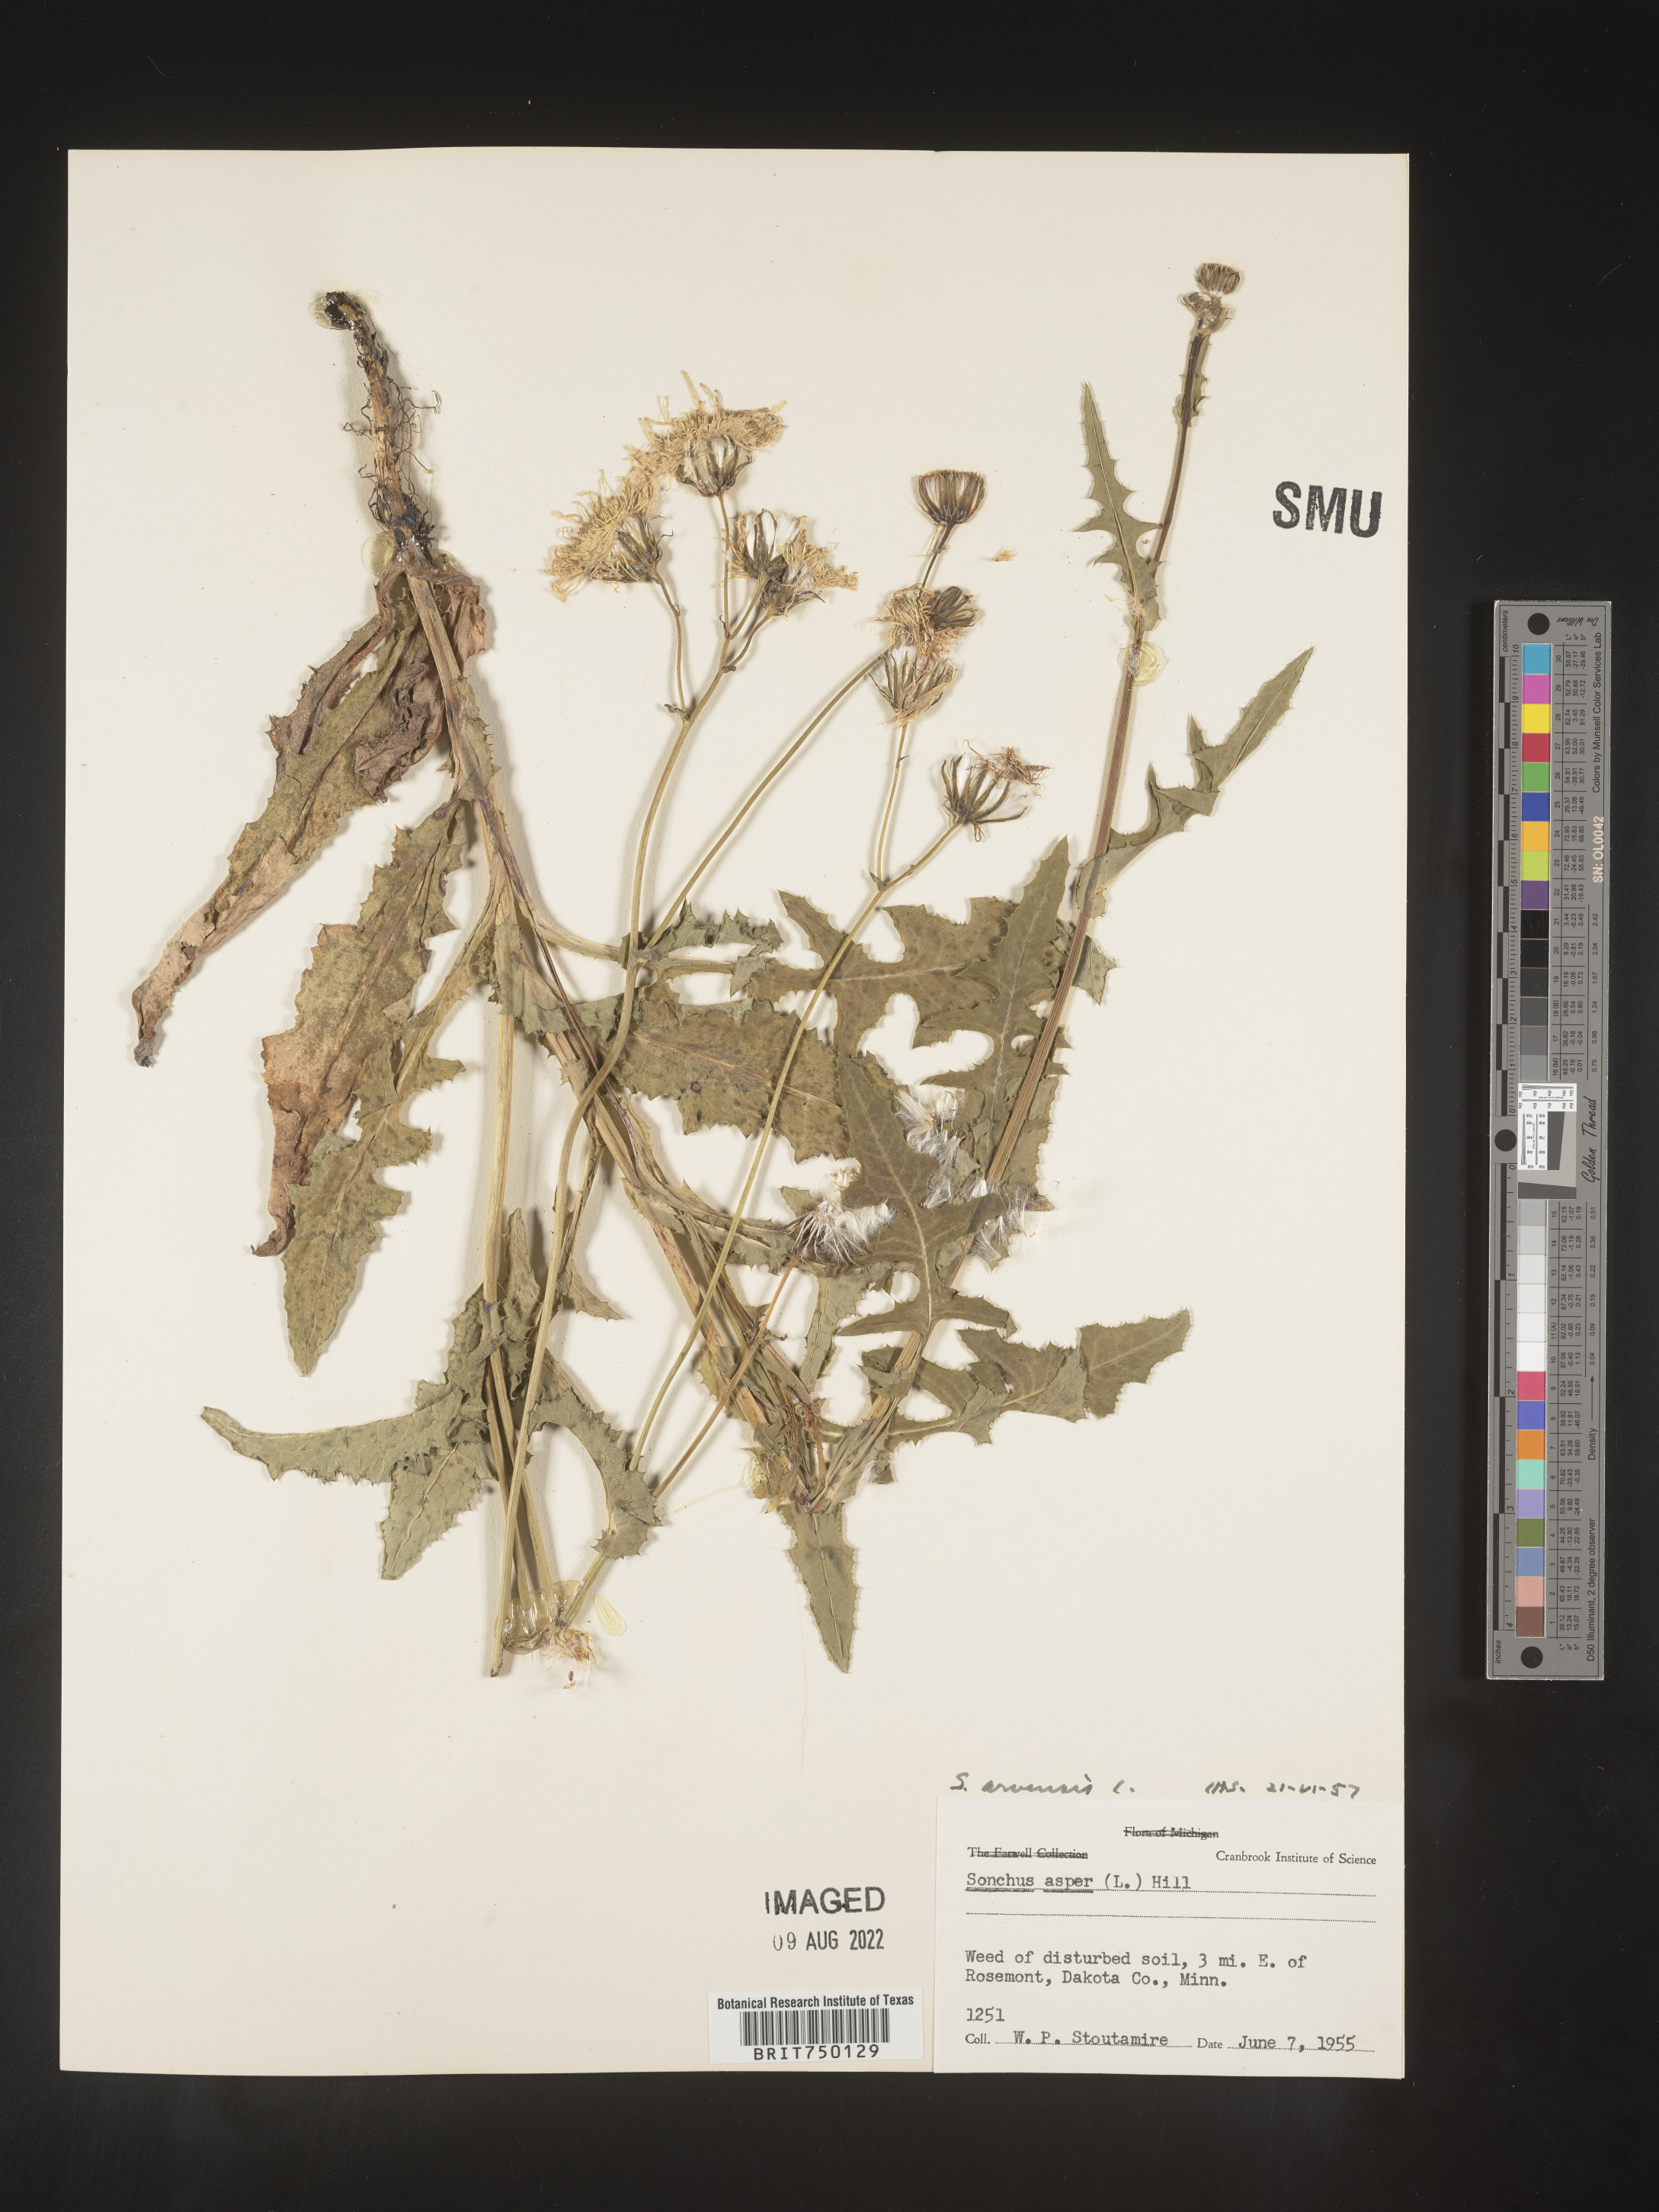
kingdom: Plantae
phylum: Tracheophyta
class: Magnoliopsida
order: Asterales
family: Asteraceae
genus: Sonchus
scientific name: Sonchus arvensis
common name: Perennial sow-thistle
